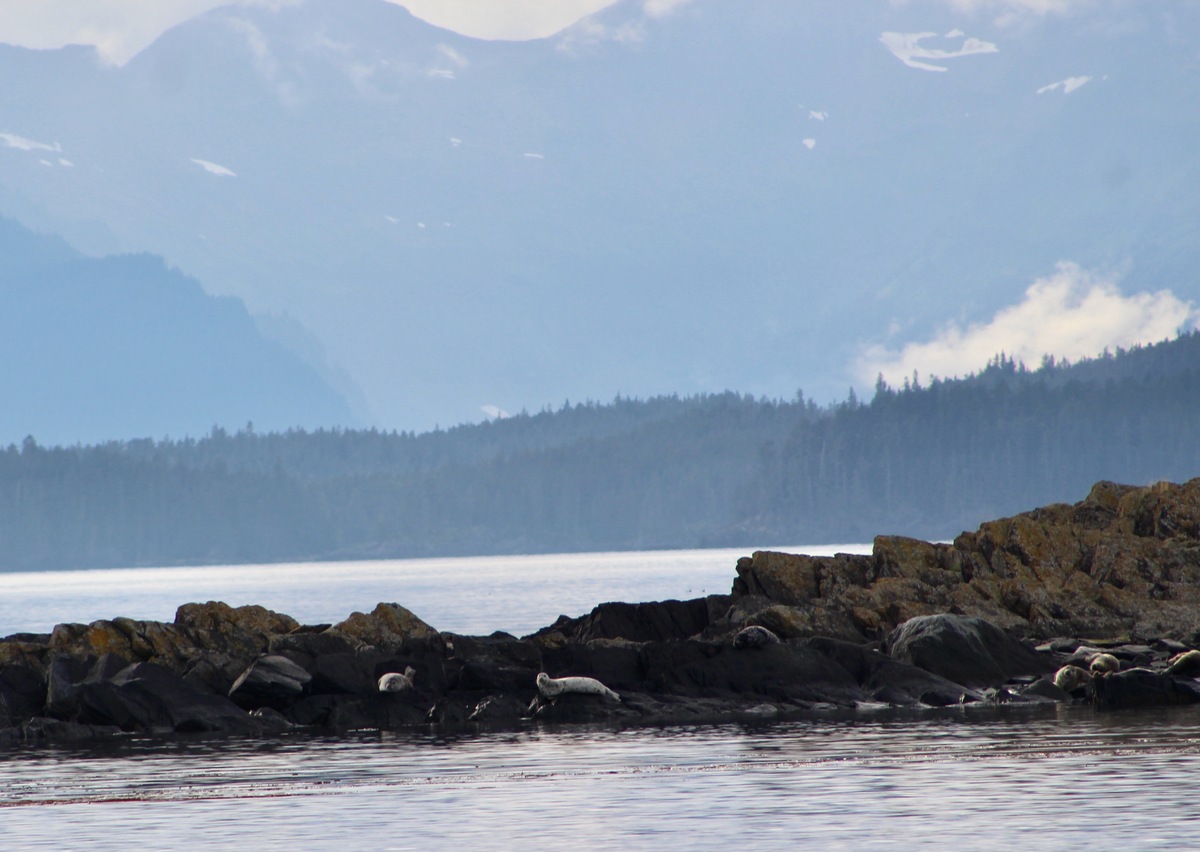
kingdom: Animalia
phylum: Chordata
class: Mammalia
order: Carnivora
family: Phocidae
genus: Phoca
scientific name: Phoca vitulina
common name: Harbor seal
